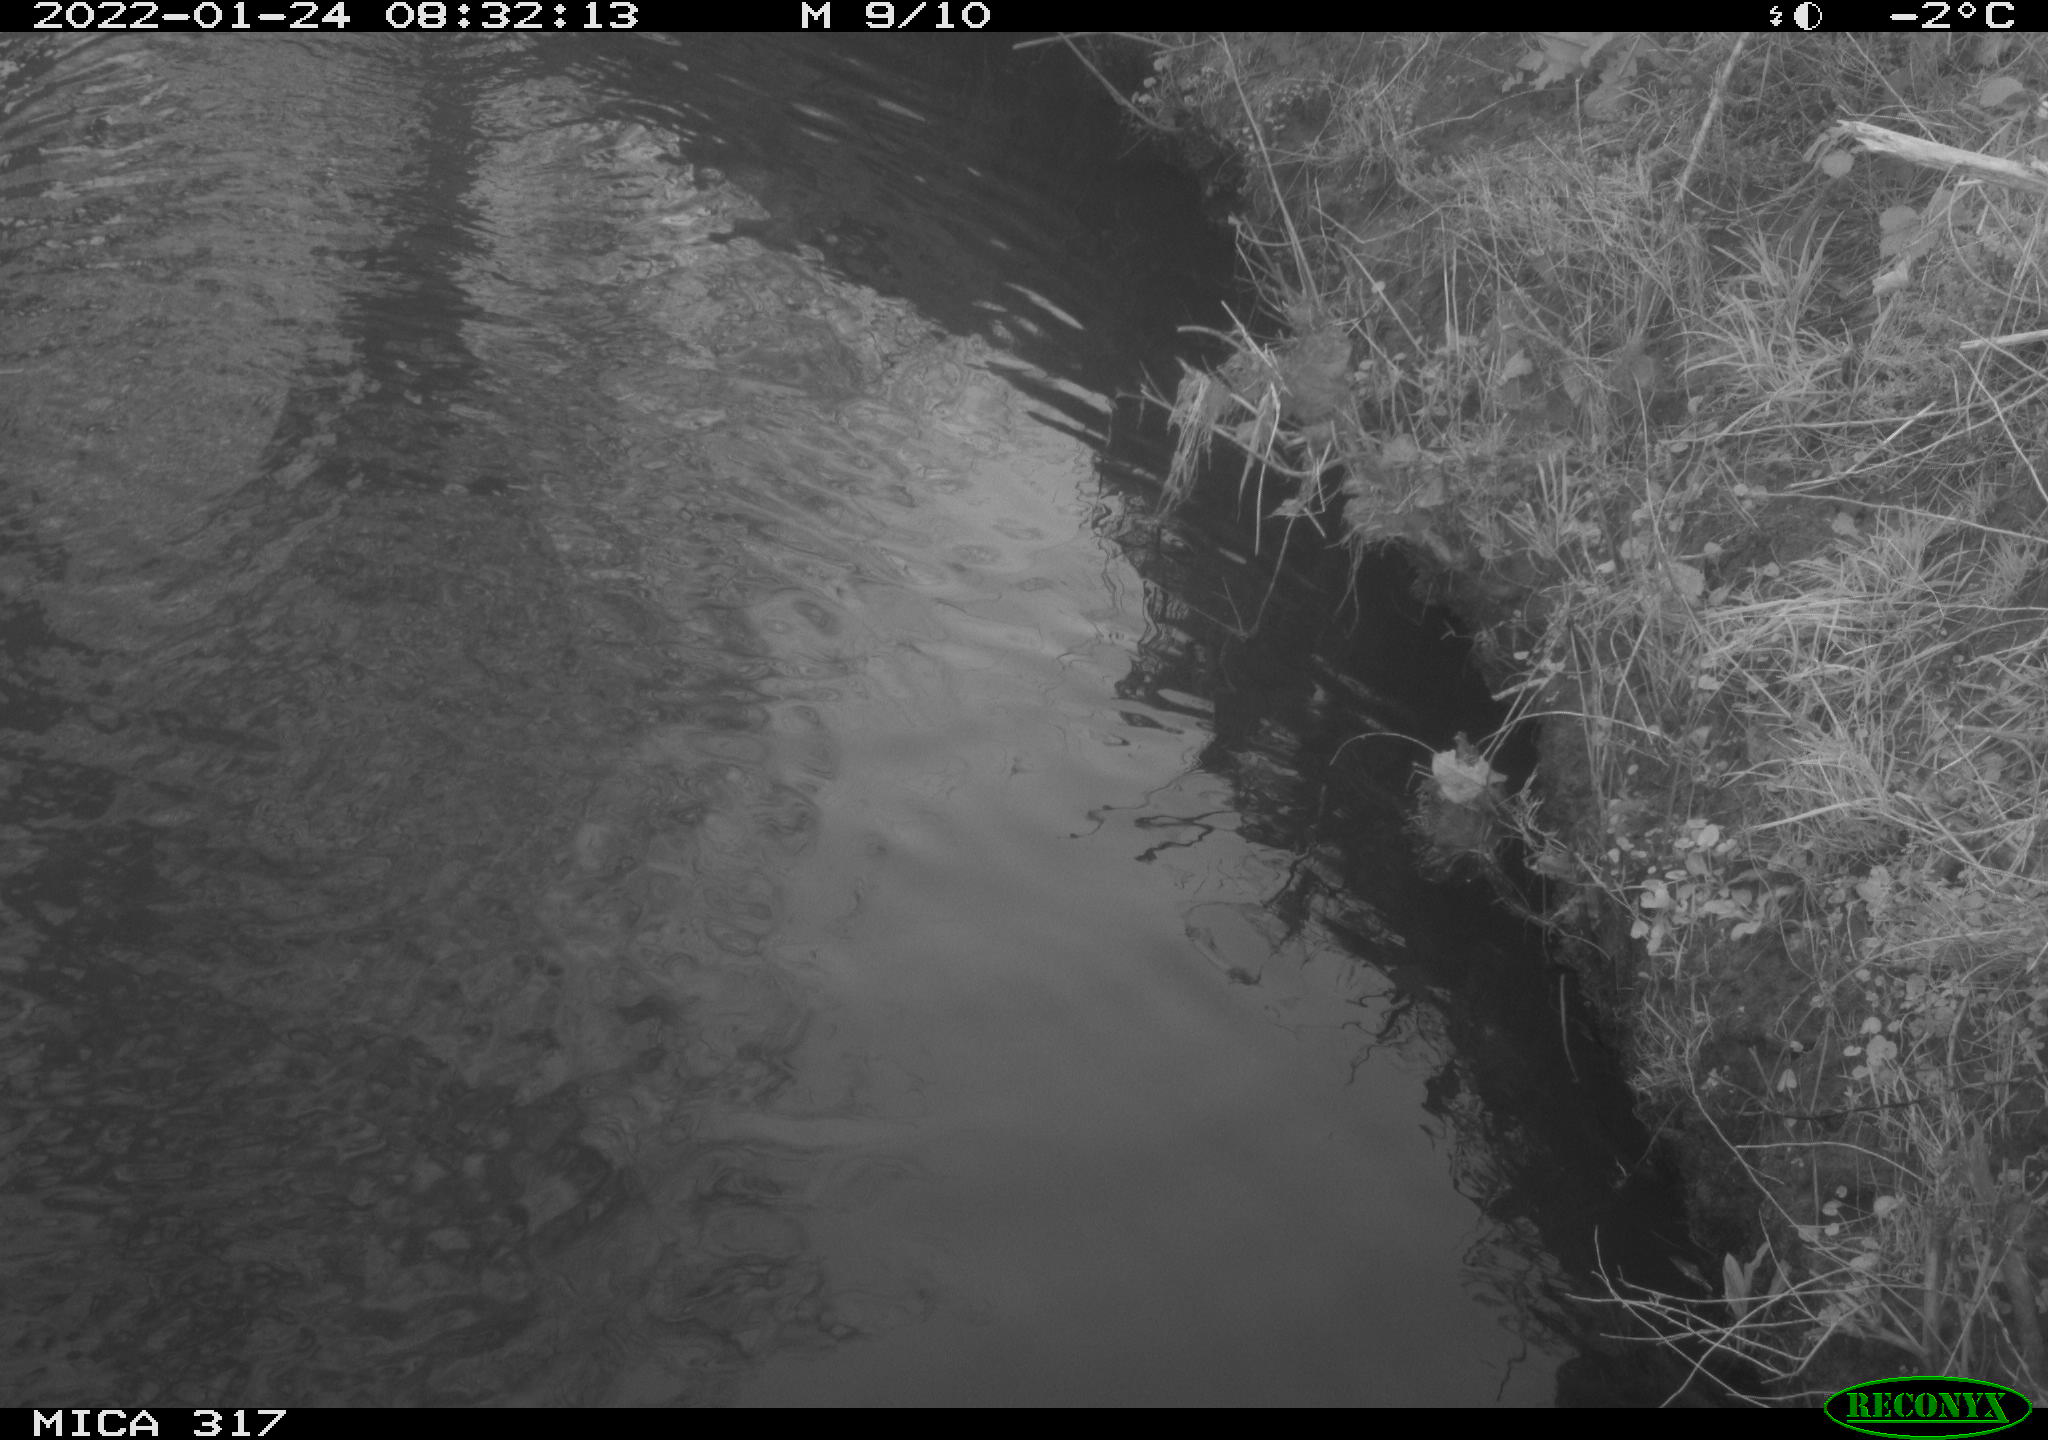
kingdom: Animalia
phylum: Chordata
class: Aves
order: Anseriformes
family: Anatidae
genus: Anas
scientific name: Anas platyrhynchos
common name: Mallard
